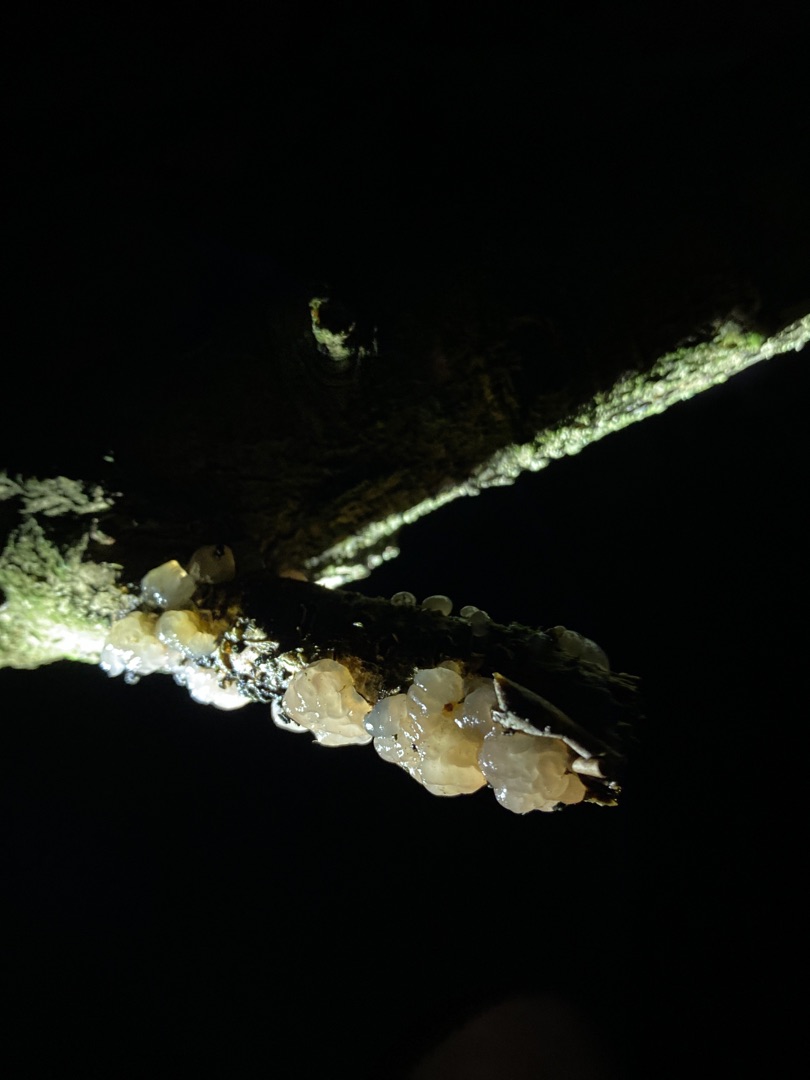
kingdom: Fungi
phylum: Basidiomycota
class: Tremellomycetes
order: Tremellales
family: Tremellaceae
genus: Tremella
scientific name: Tremella
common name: Bævresvamp
